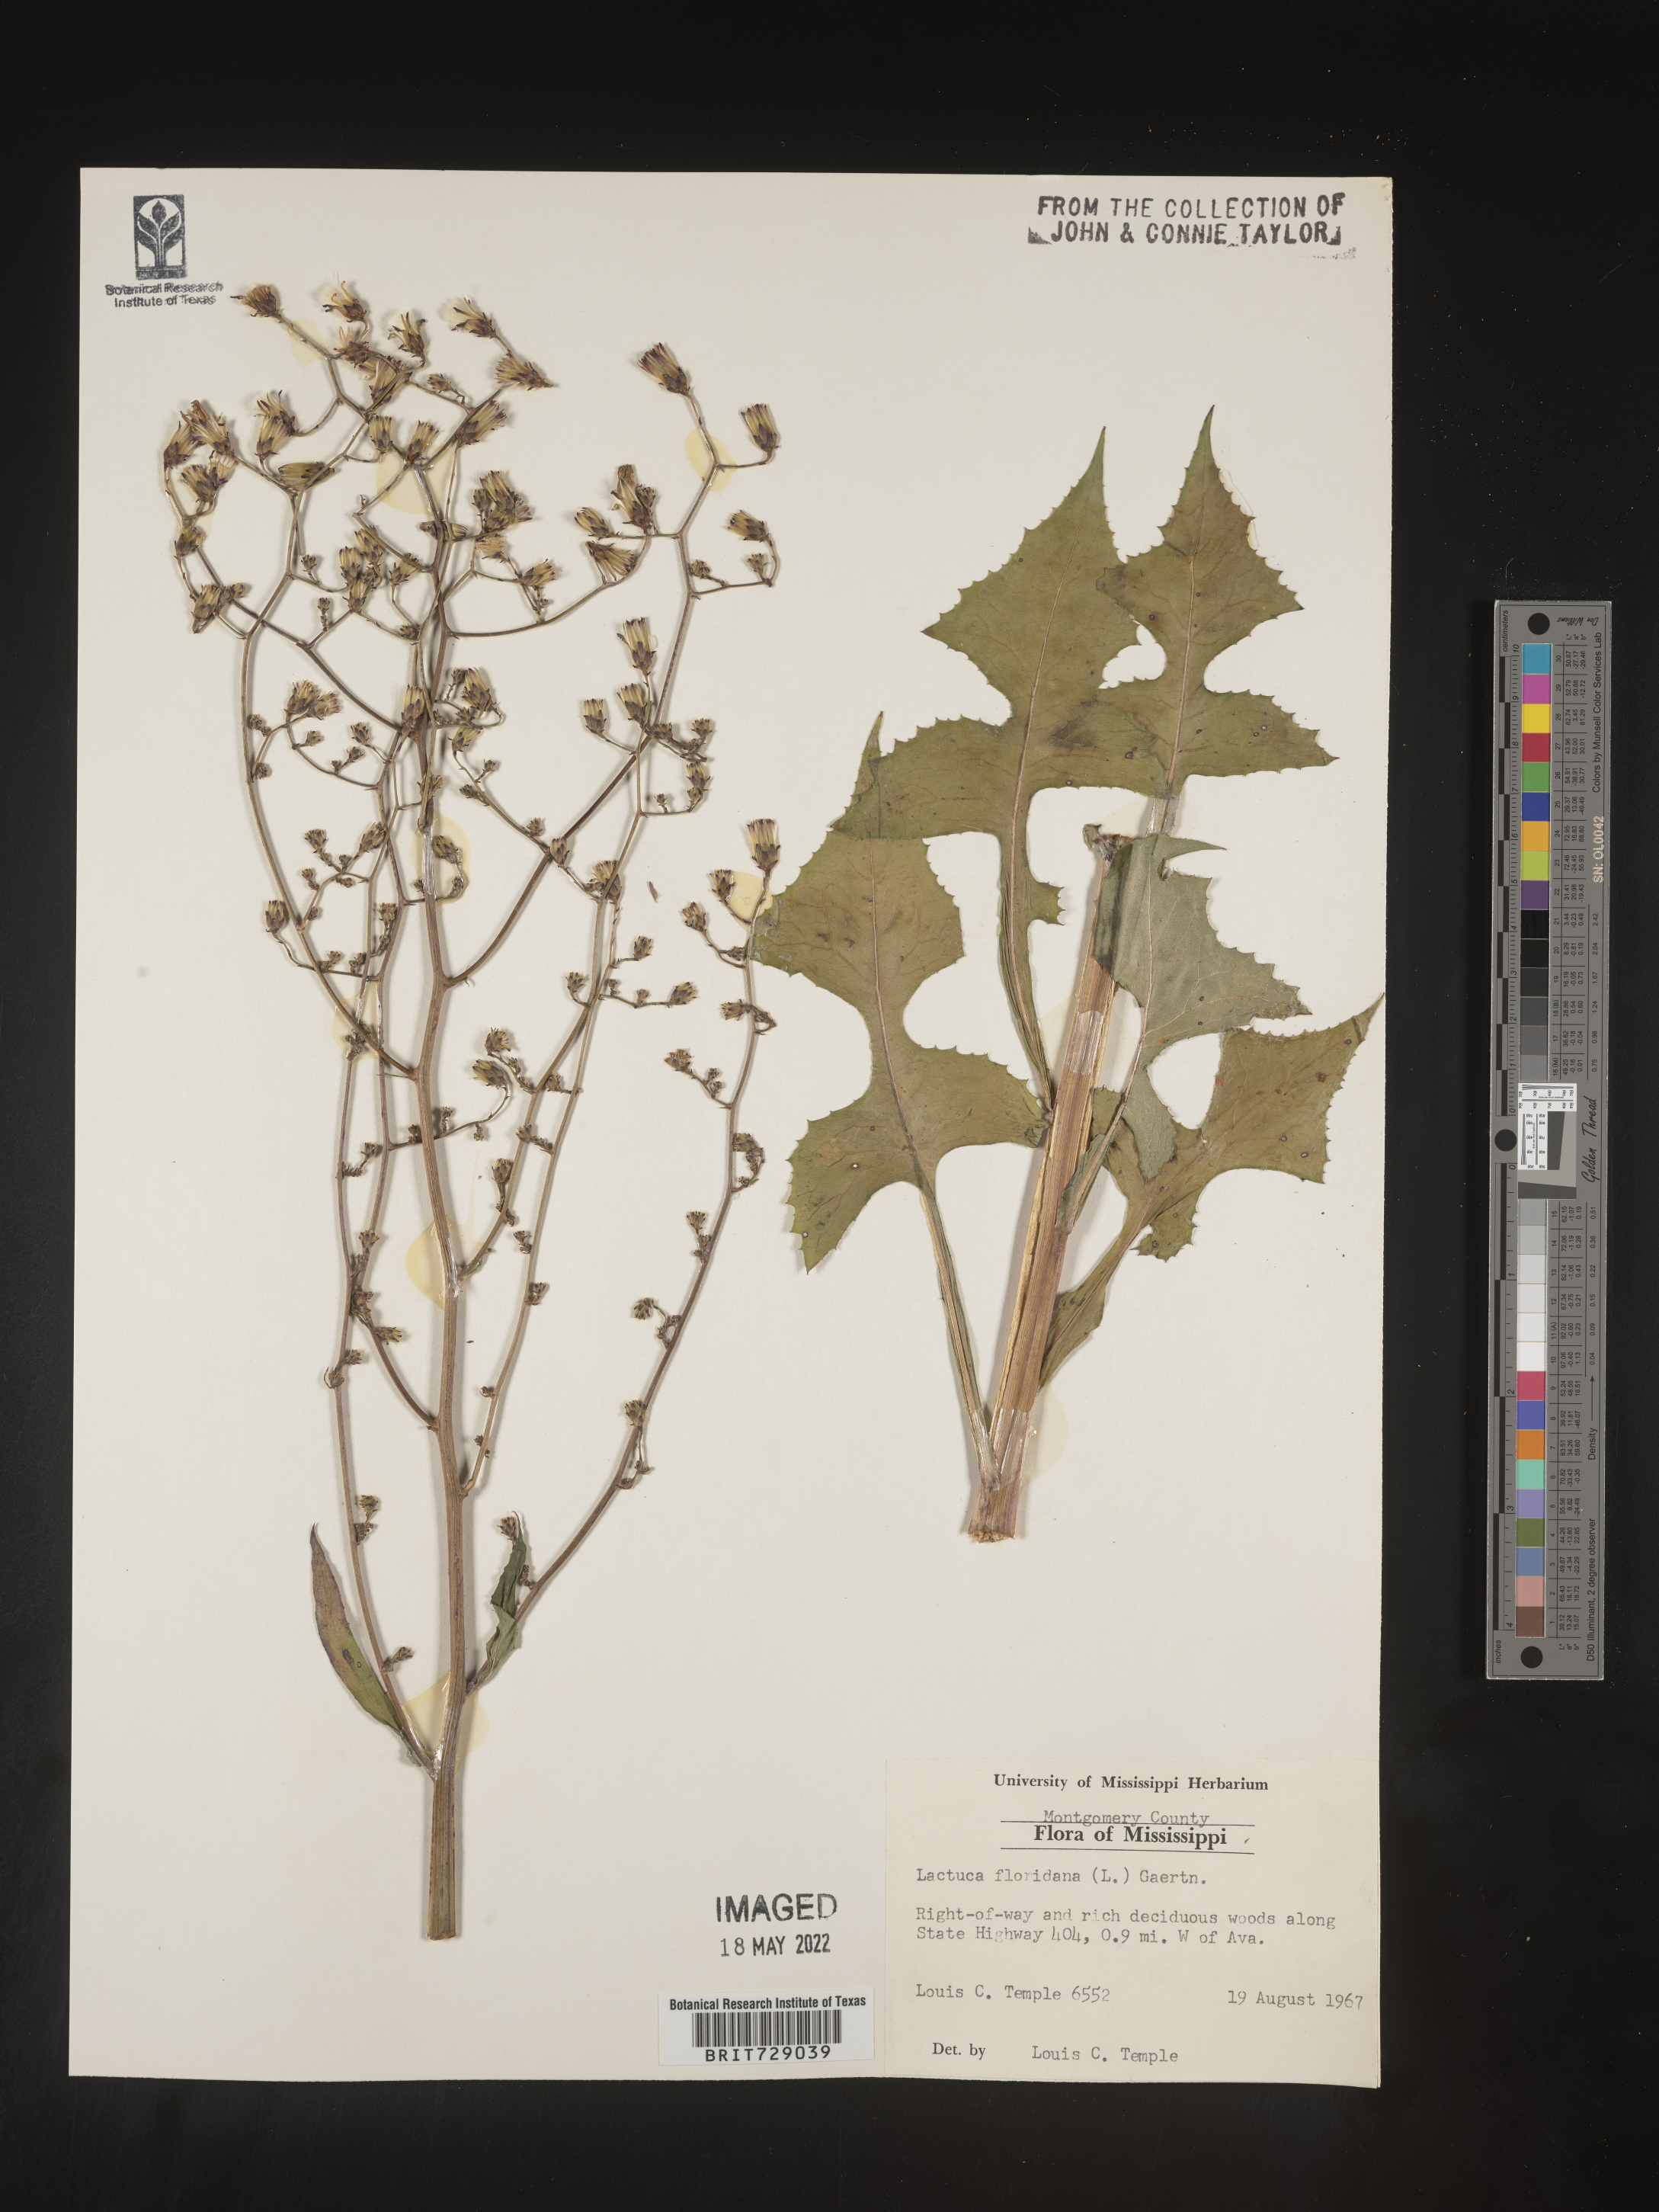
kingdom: Plantae
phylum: Tracheophyta
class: Magnoliopsida
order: Asterales
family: Asteraceae
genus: Lactuca
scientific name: Lactuca floridana
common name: Woodland lettuce
